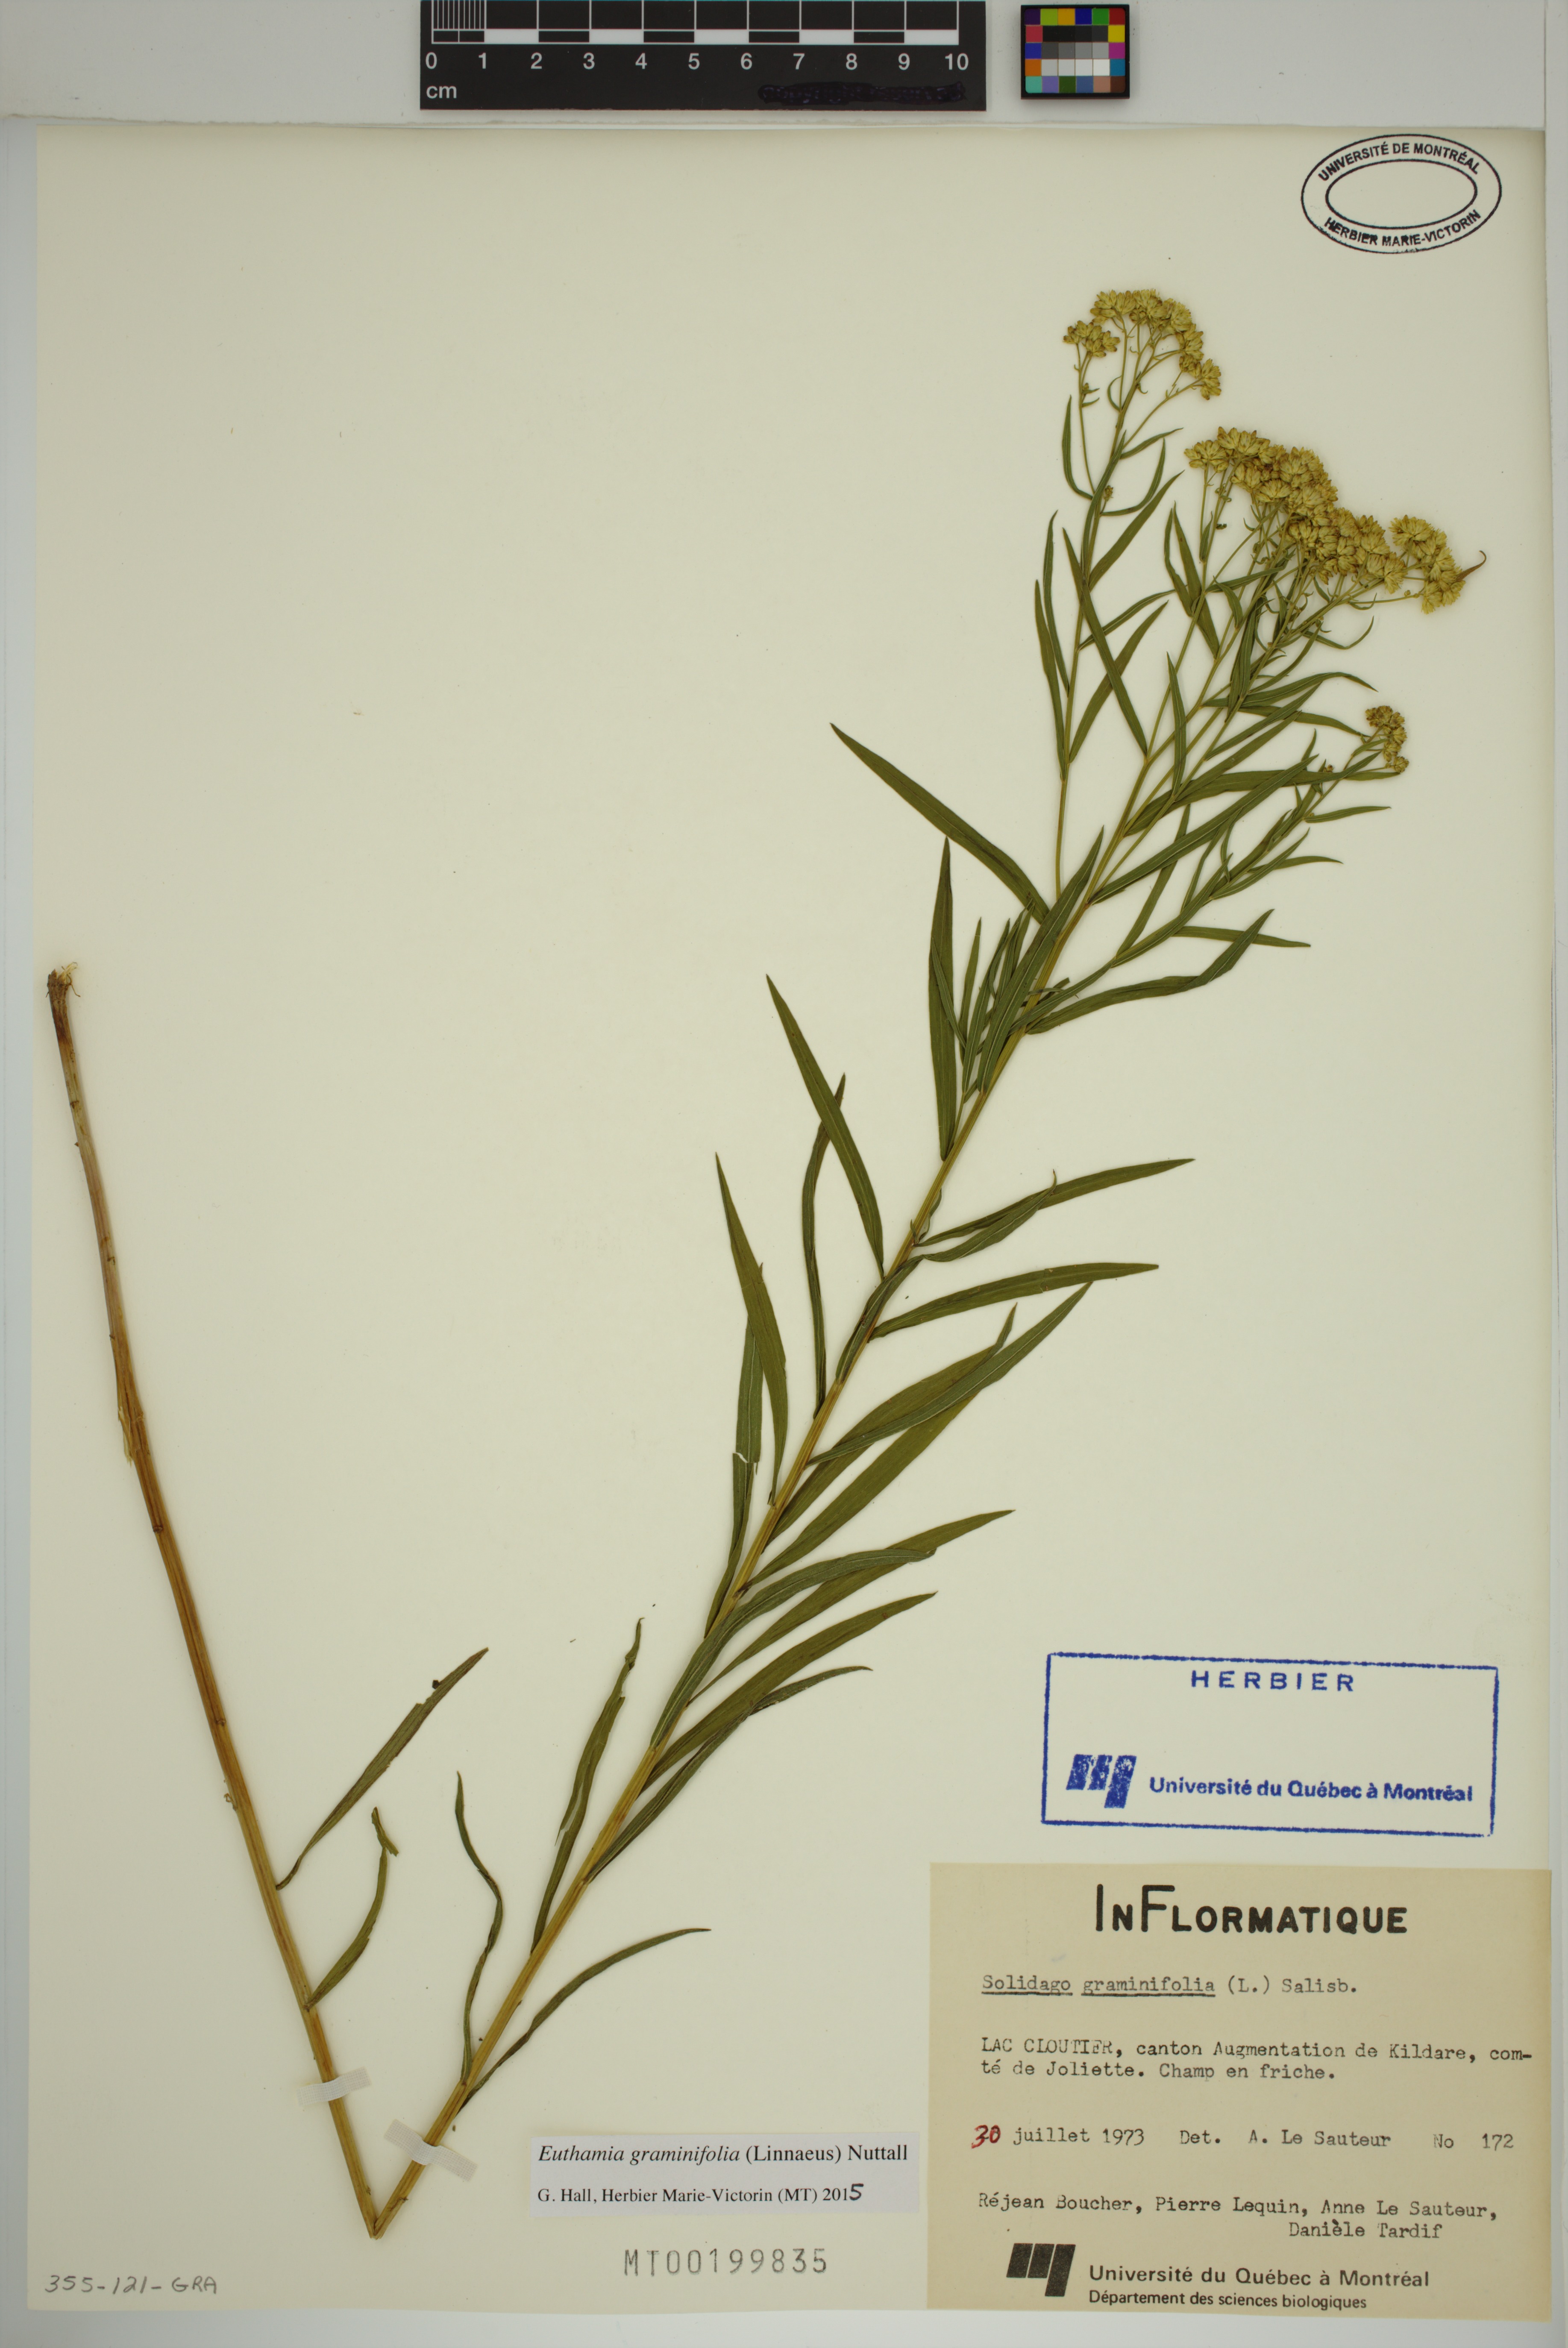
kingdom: Plantae
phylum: Tracheophyta
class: Magnoliopsida
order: Asterales
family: Asteraceae
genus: Euthamia
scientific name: Euthamia graminifolia
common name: Common goldentop
